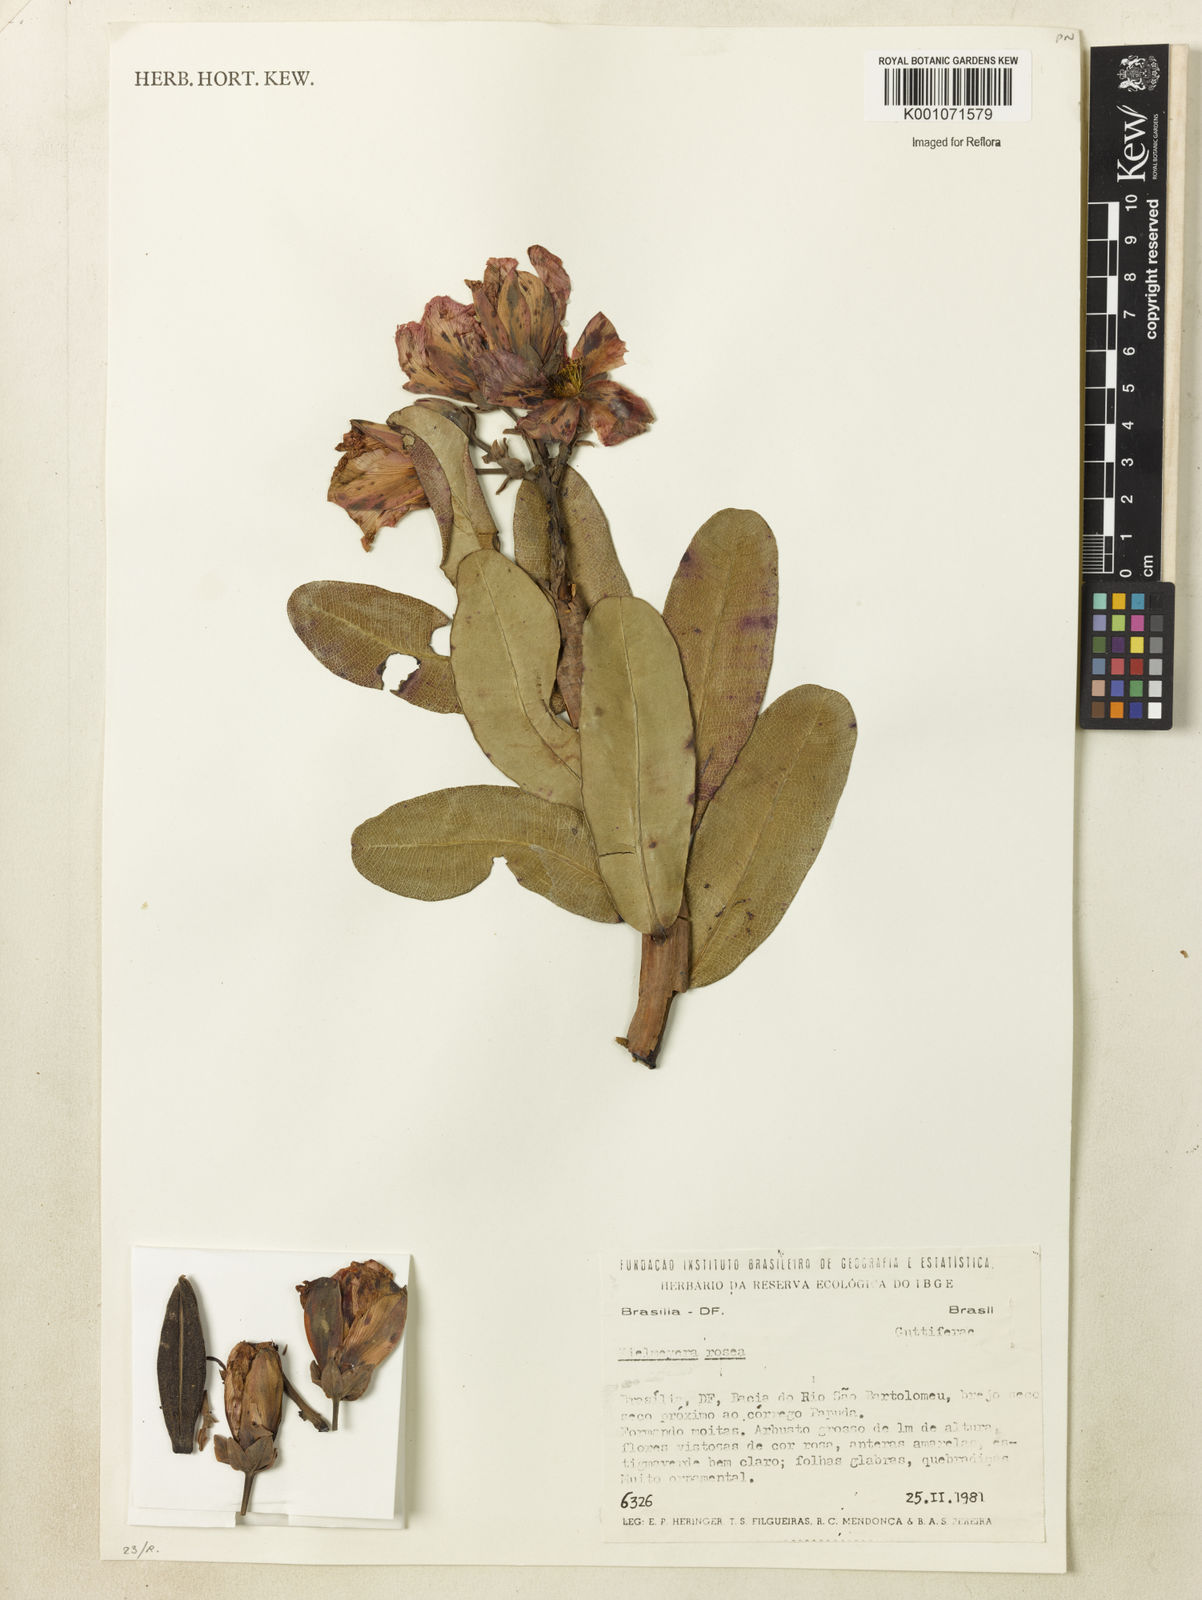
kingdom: Plantae
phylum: Tracheophyta
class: Magnoliopsida
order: Malpighiales
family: Calophyllaceae
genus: Kielmeyera
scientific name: Kielmeyera rosea
